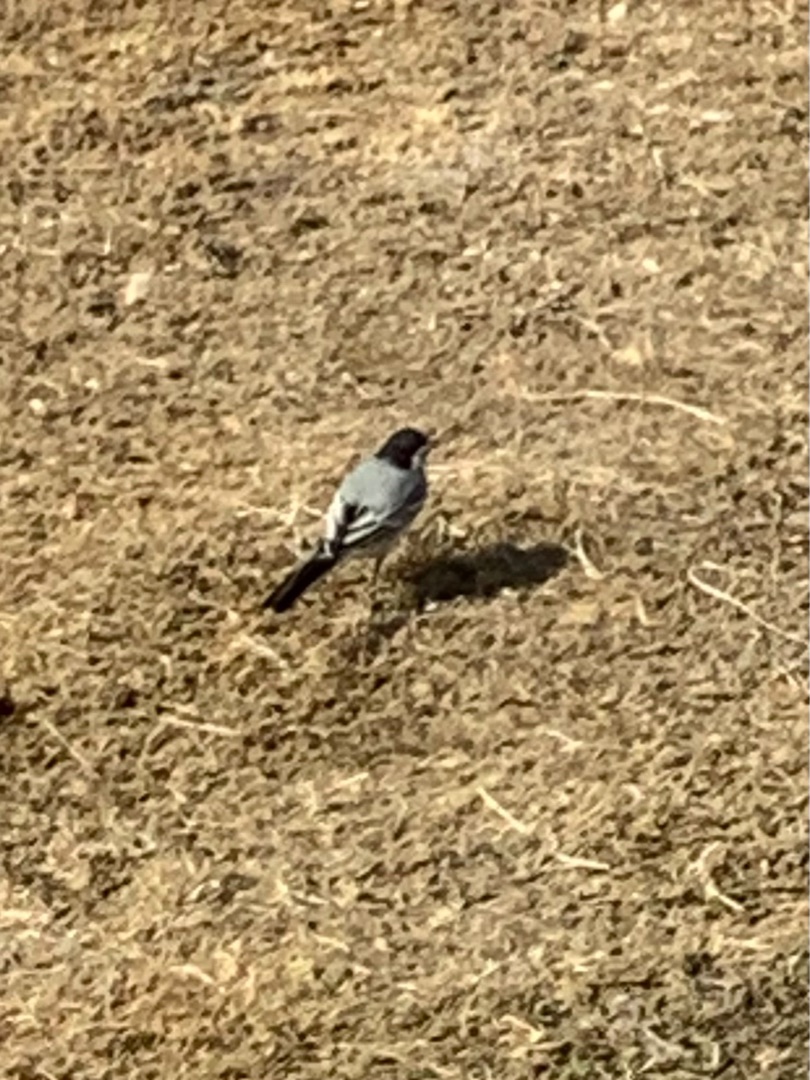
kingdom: Animalia
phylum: Chordata
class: Aves
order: Passeriformes
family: Motacillidae
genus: Motacilla
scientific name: Motacilla alba
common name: Hvid vipstjert
